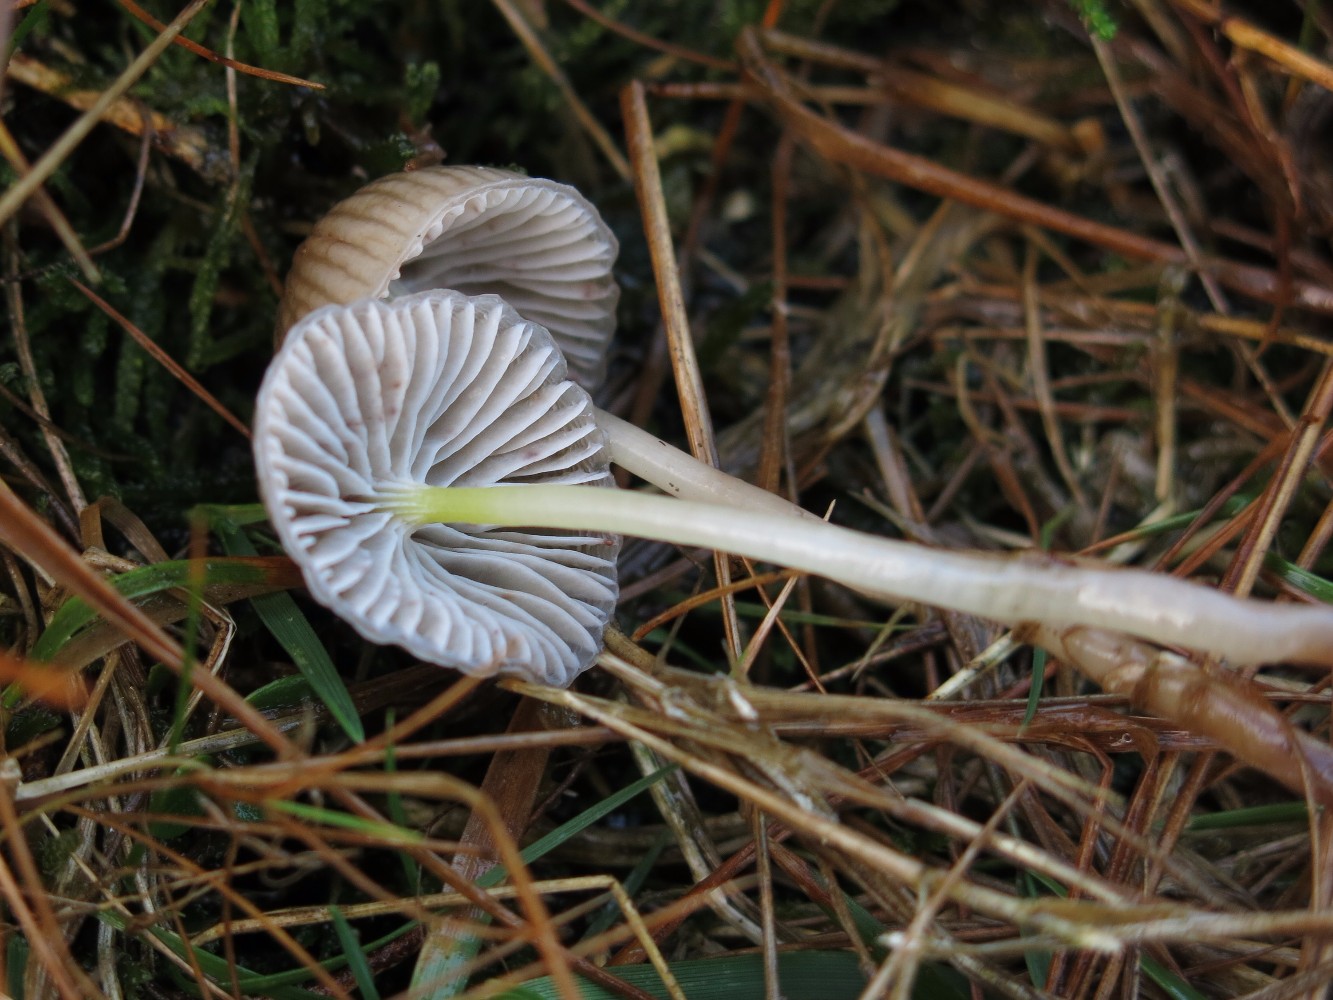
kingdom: Fungi
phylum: Basidiomycota
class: Agaricomycetes
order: Agaricales
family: Mycenaceae
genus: Mycena
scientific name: Mycena epipterygia
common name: gulstokket huesvamp
